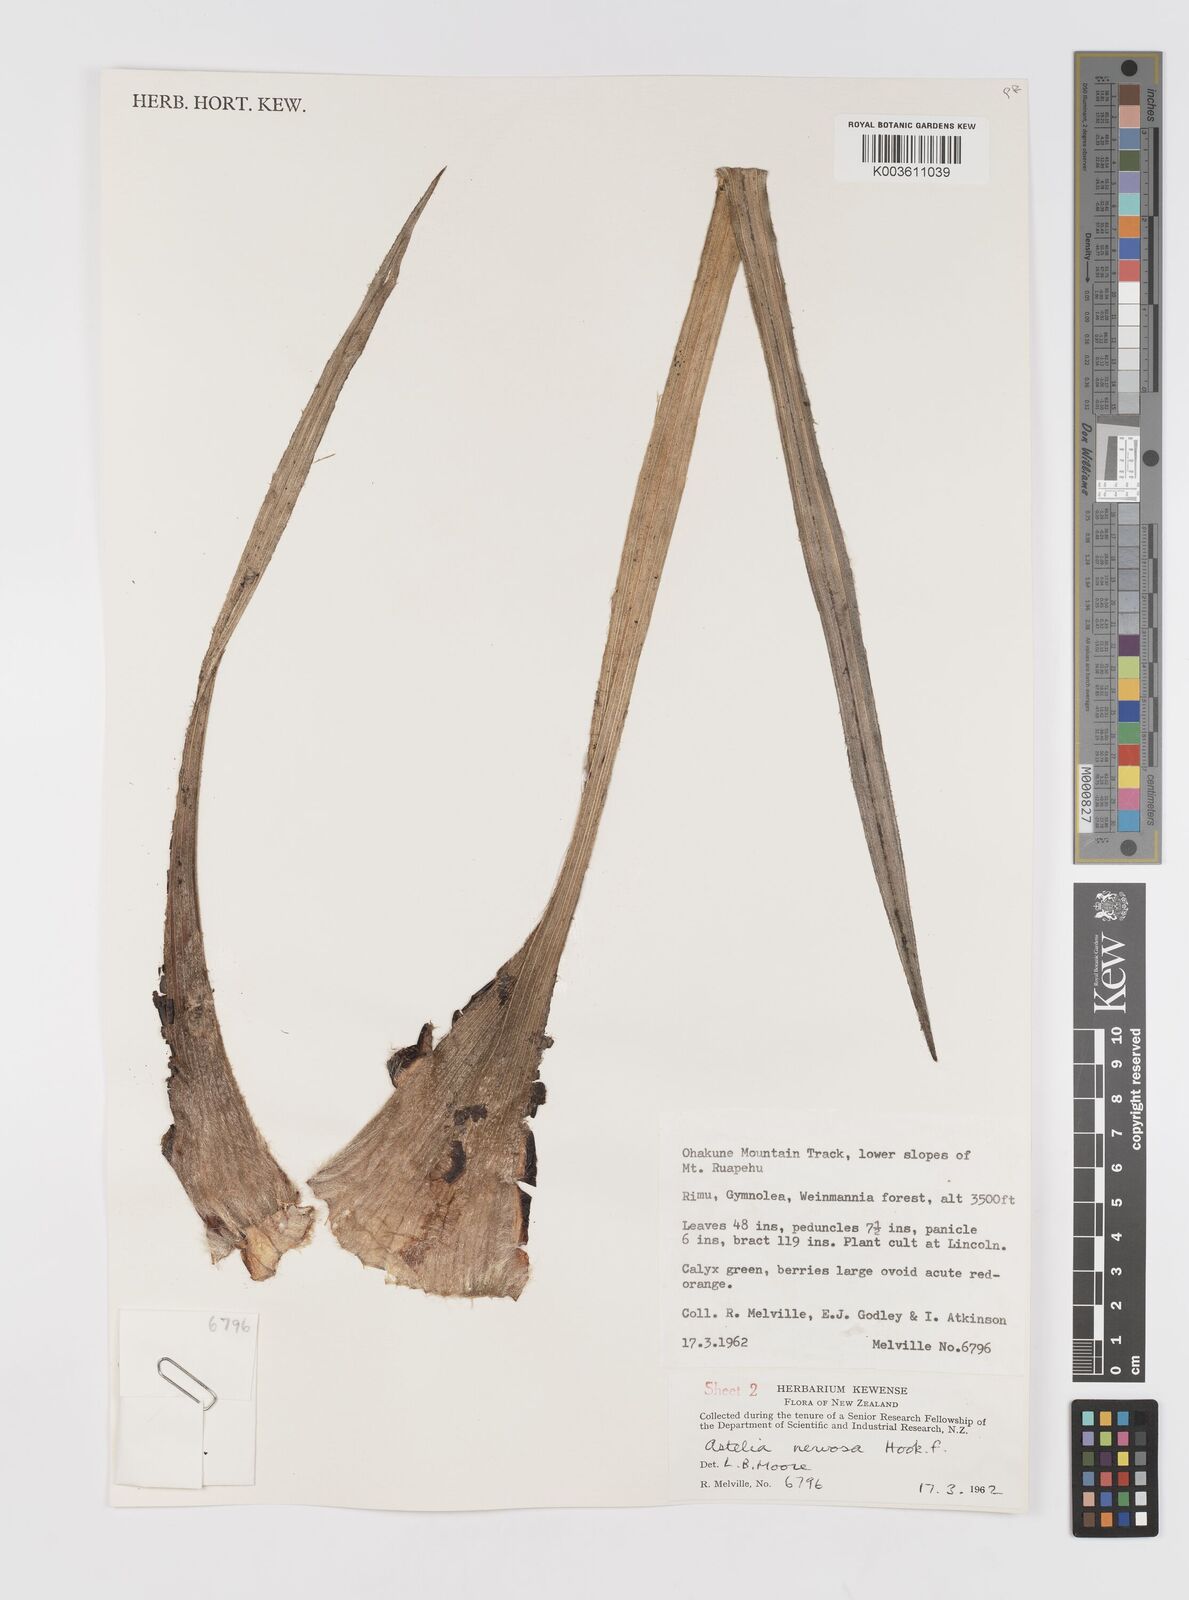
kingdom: Plantae
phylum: Tracheophyta
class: Liliopsida
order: Asparagales
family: Asteliaceae
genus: Astelia
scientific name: Astelia nervosa
